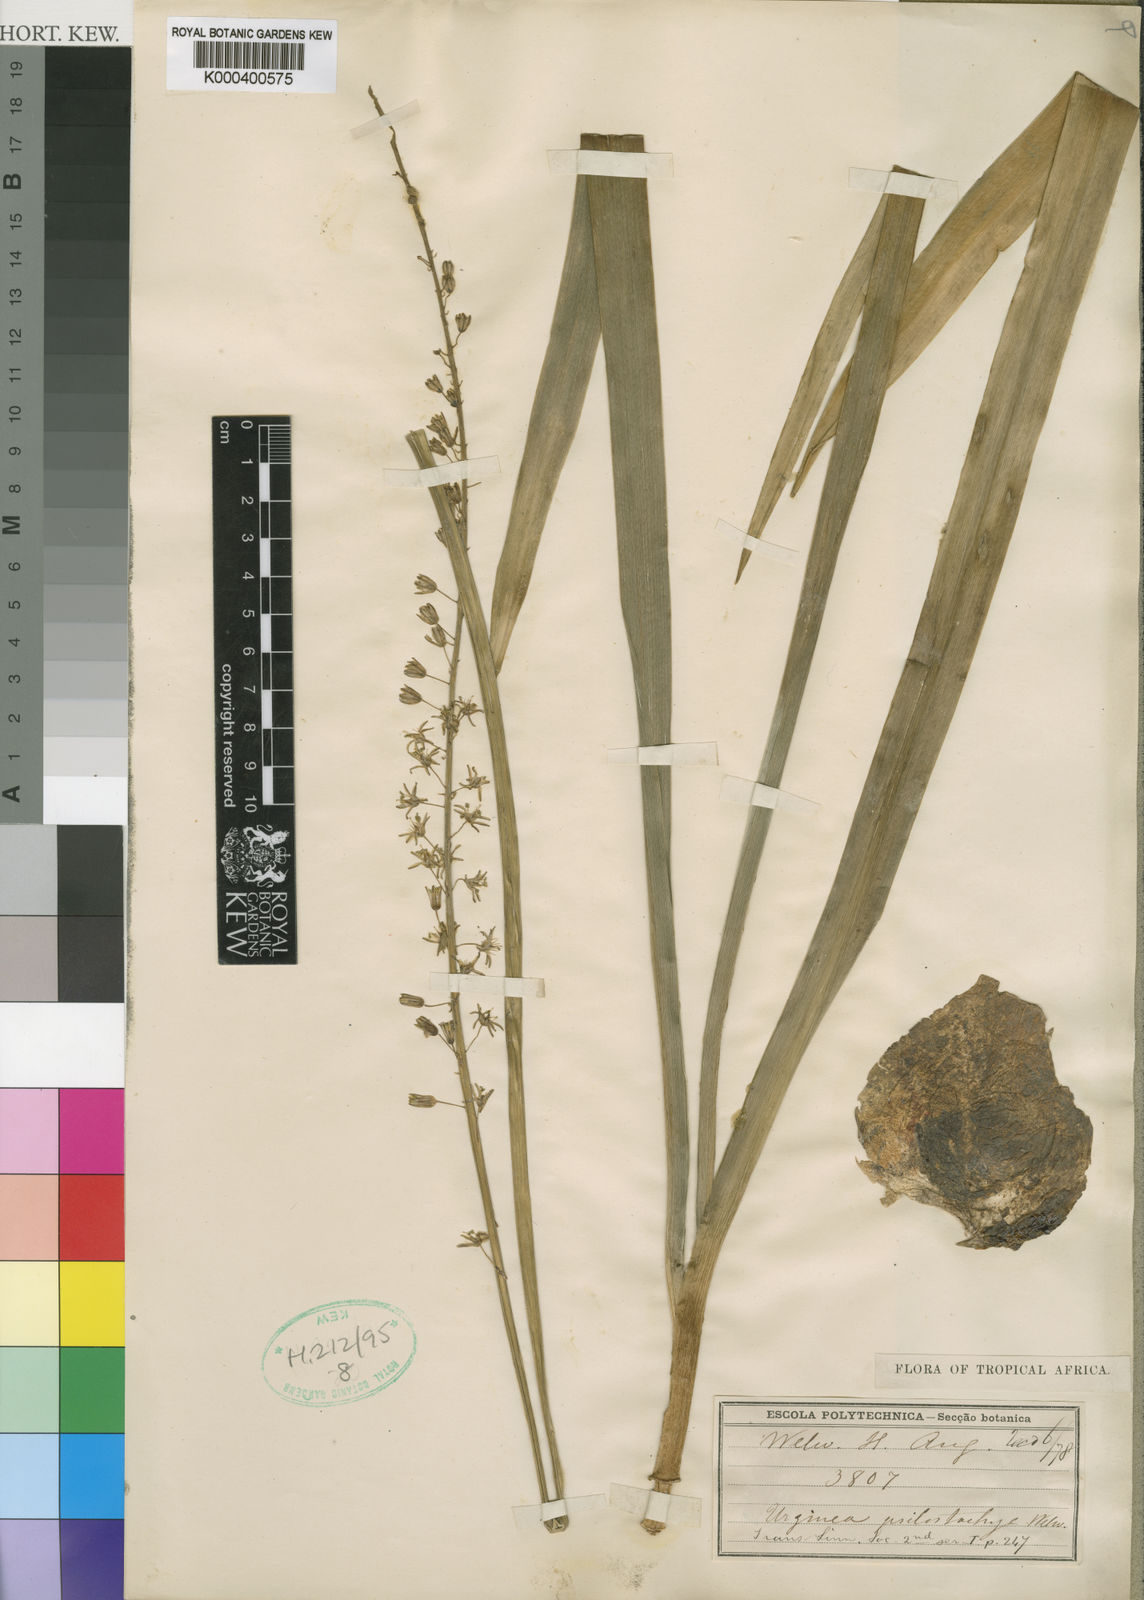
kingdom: Plantae
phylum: Tracheophyta
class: Liliopsida
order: Asparagales
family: Asparagaceae
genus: Drimia
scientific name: Drimia psilostachya
